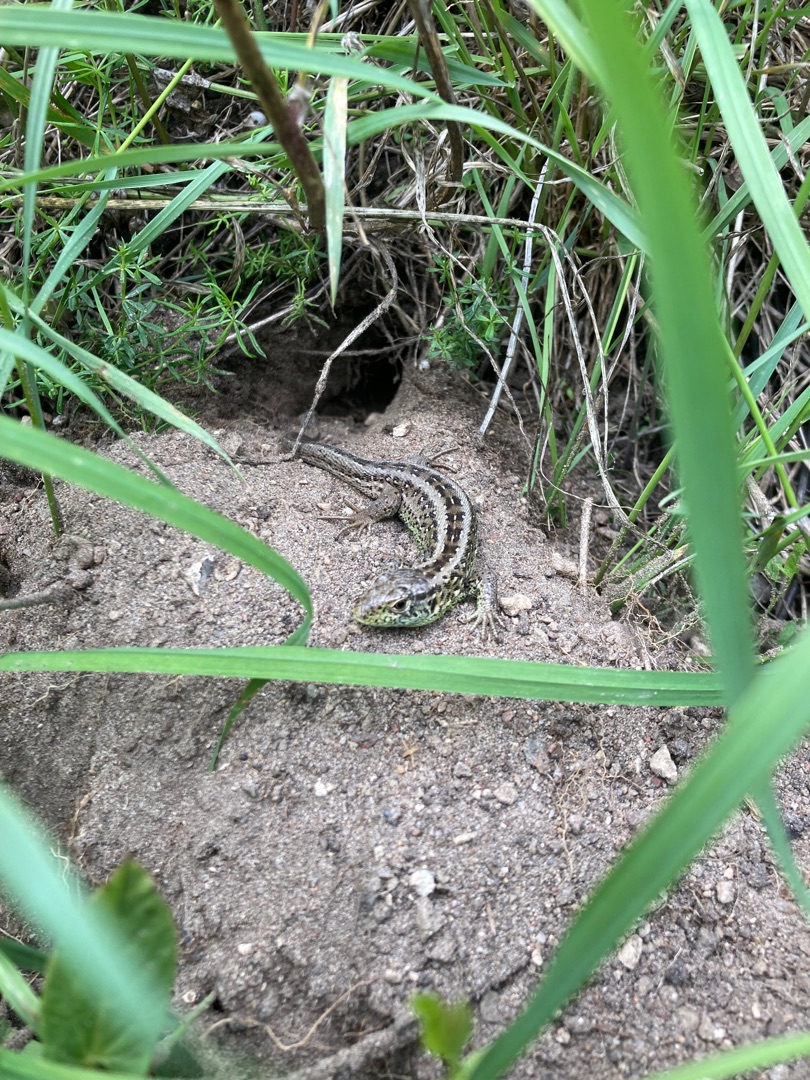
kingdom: Animalia
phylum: Chordata
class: Squamata
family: Lacertidae
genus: Lacerta
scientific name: Lacerta agilis
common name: Markfirben
